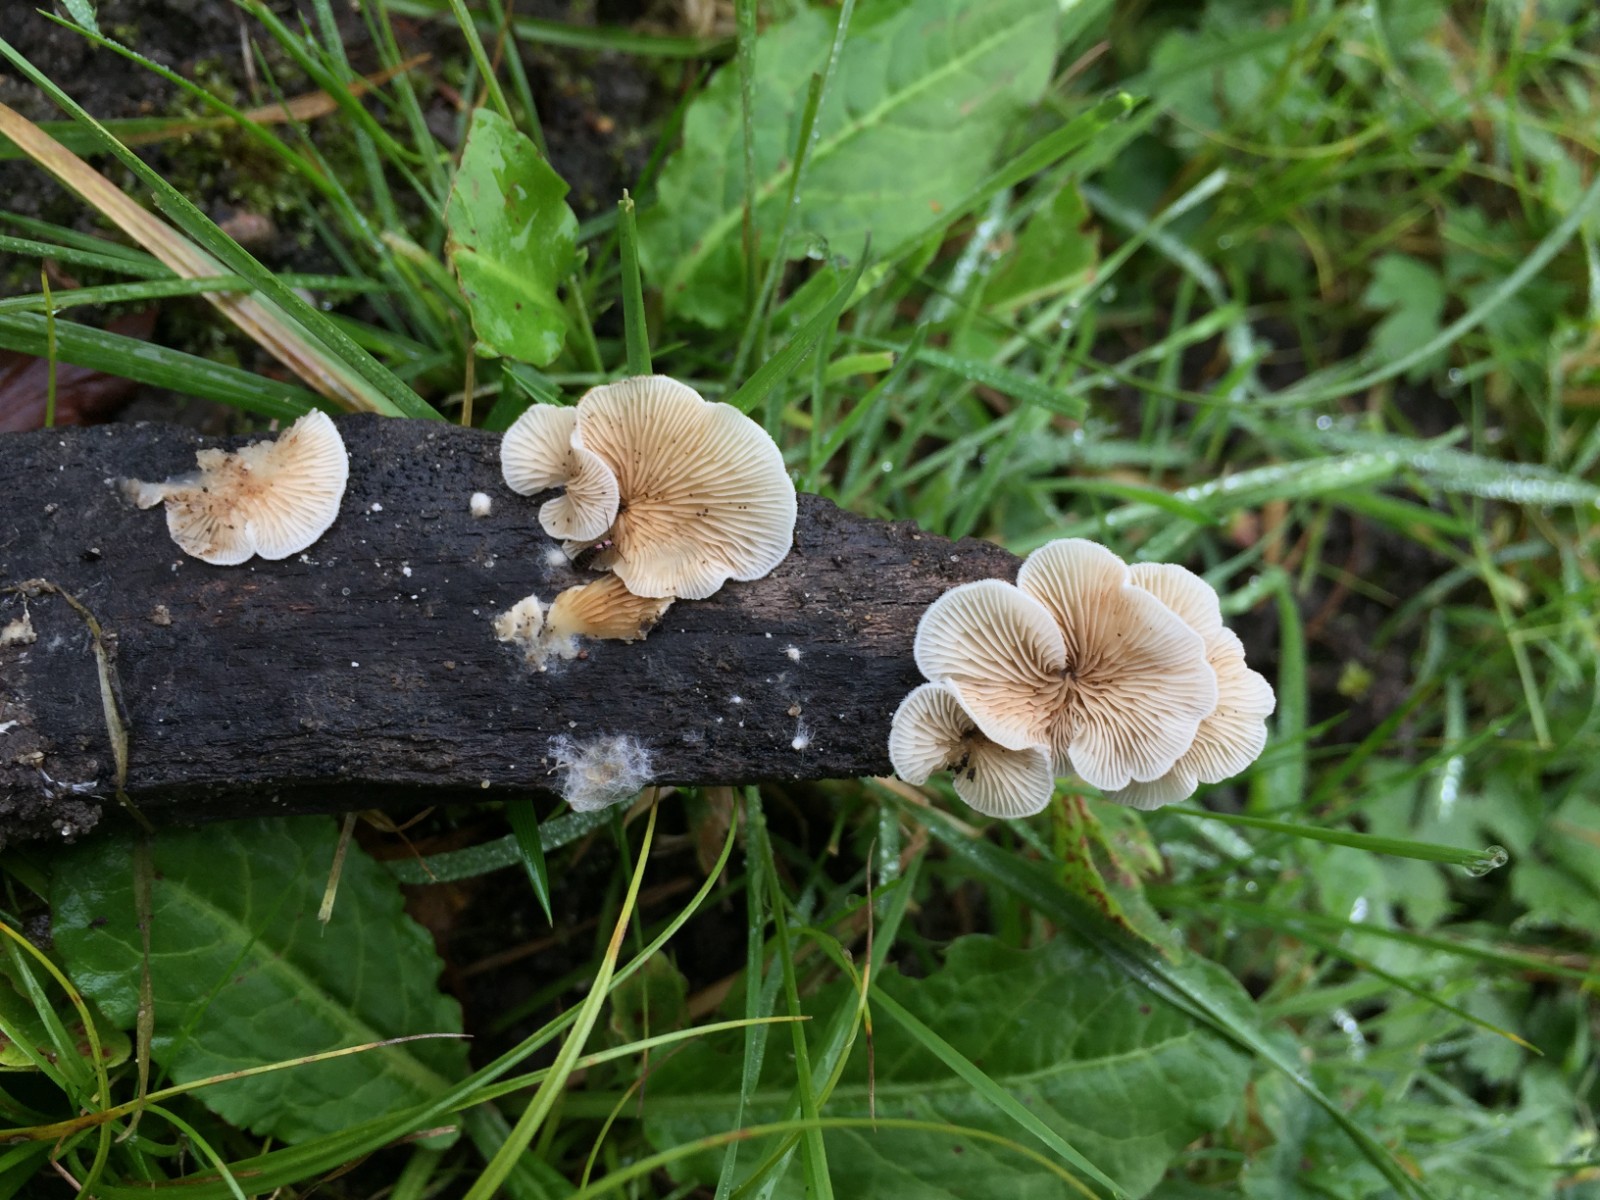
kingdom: Fungi
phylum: Basidiomycota
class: Agaricomycetes
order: Agaricales
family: Crepidotaceae
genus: Crepidotus
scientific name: Crepidotus caspari
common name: Lundells muslingesvamp
